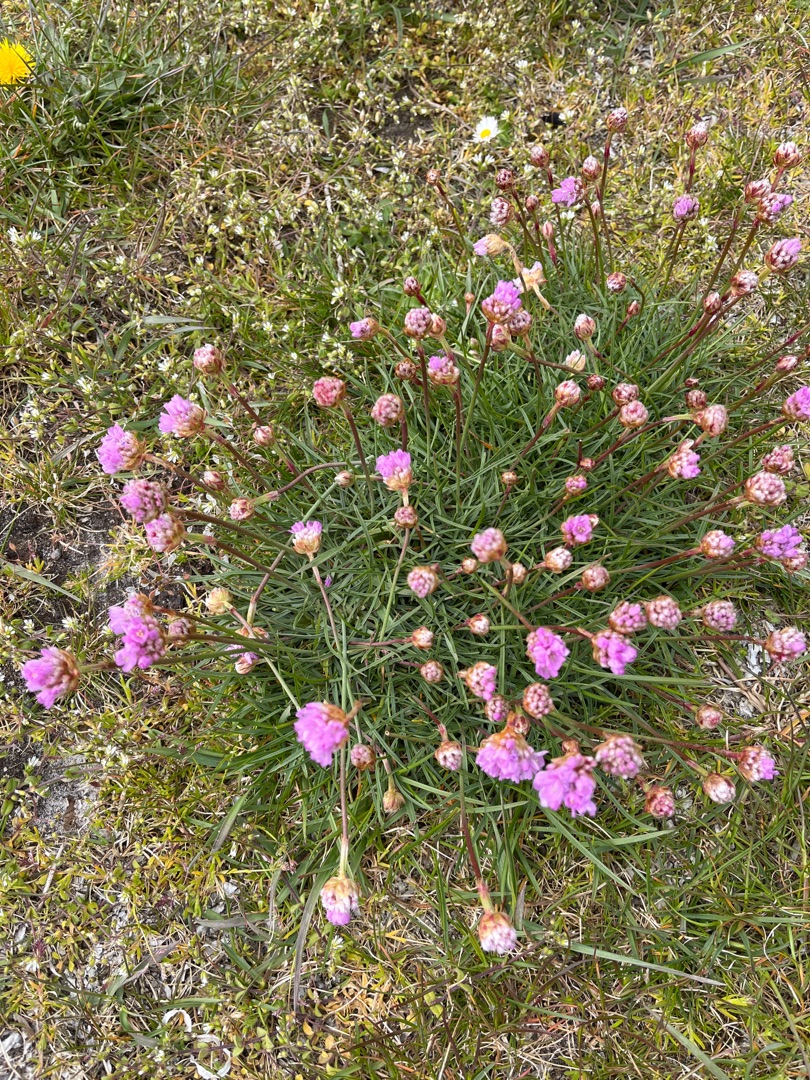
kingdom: Plantae
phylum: Tracheophyta
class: Magnoliopsida
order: Caryophyllales
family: Plumbaginaceae
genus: Armeria
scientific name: Armeria maritima
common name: Engelskgræs
